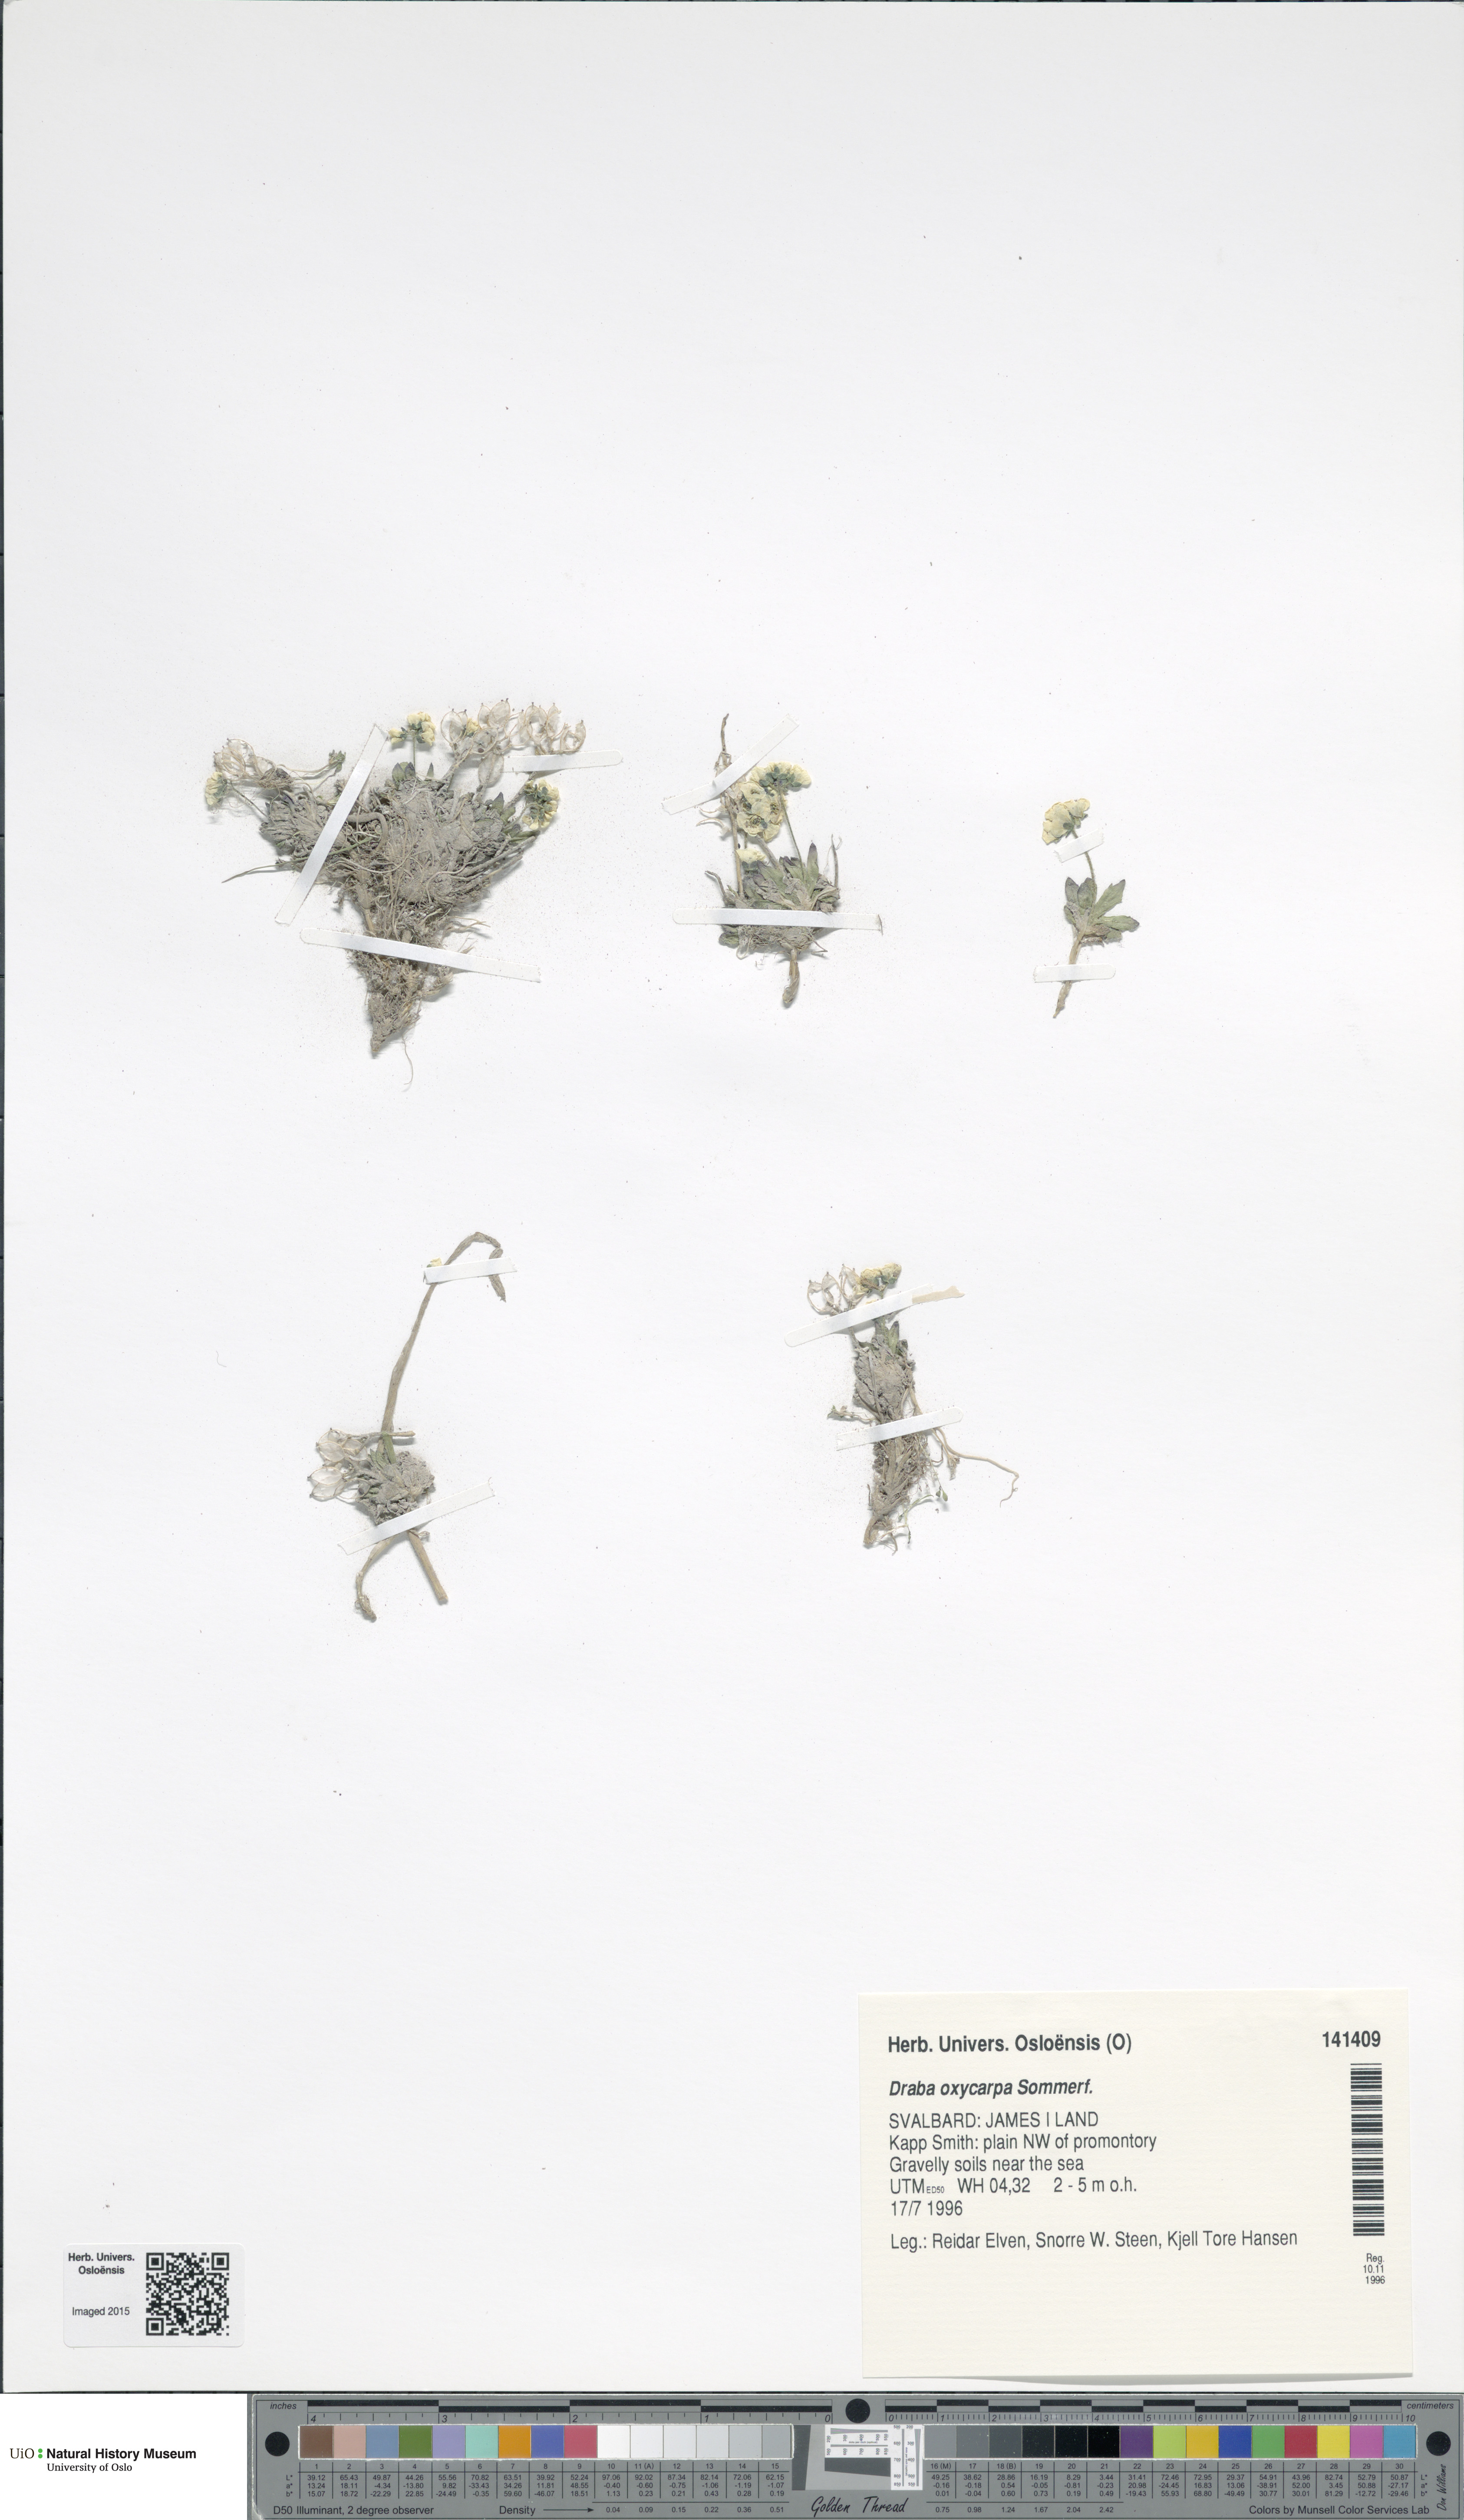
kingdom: Plantae
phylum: Tracheophyta
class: Magnoliopsida
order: Brassicales
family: Brassicaceae
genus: Draba
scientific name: Draba oxycarpa
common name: Sharp-fruited whitlow-grass
